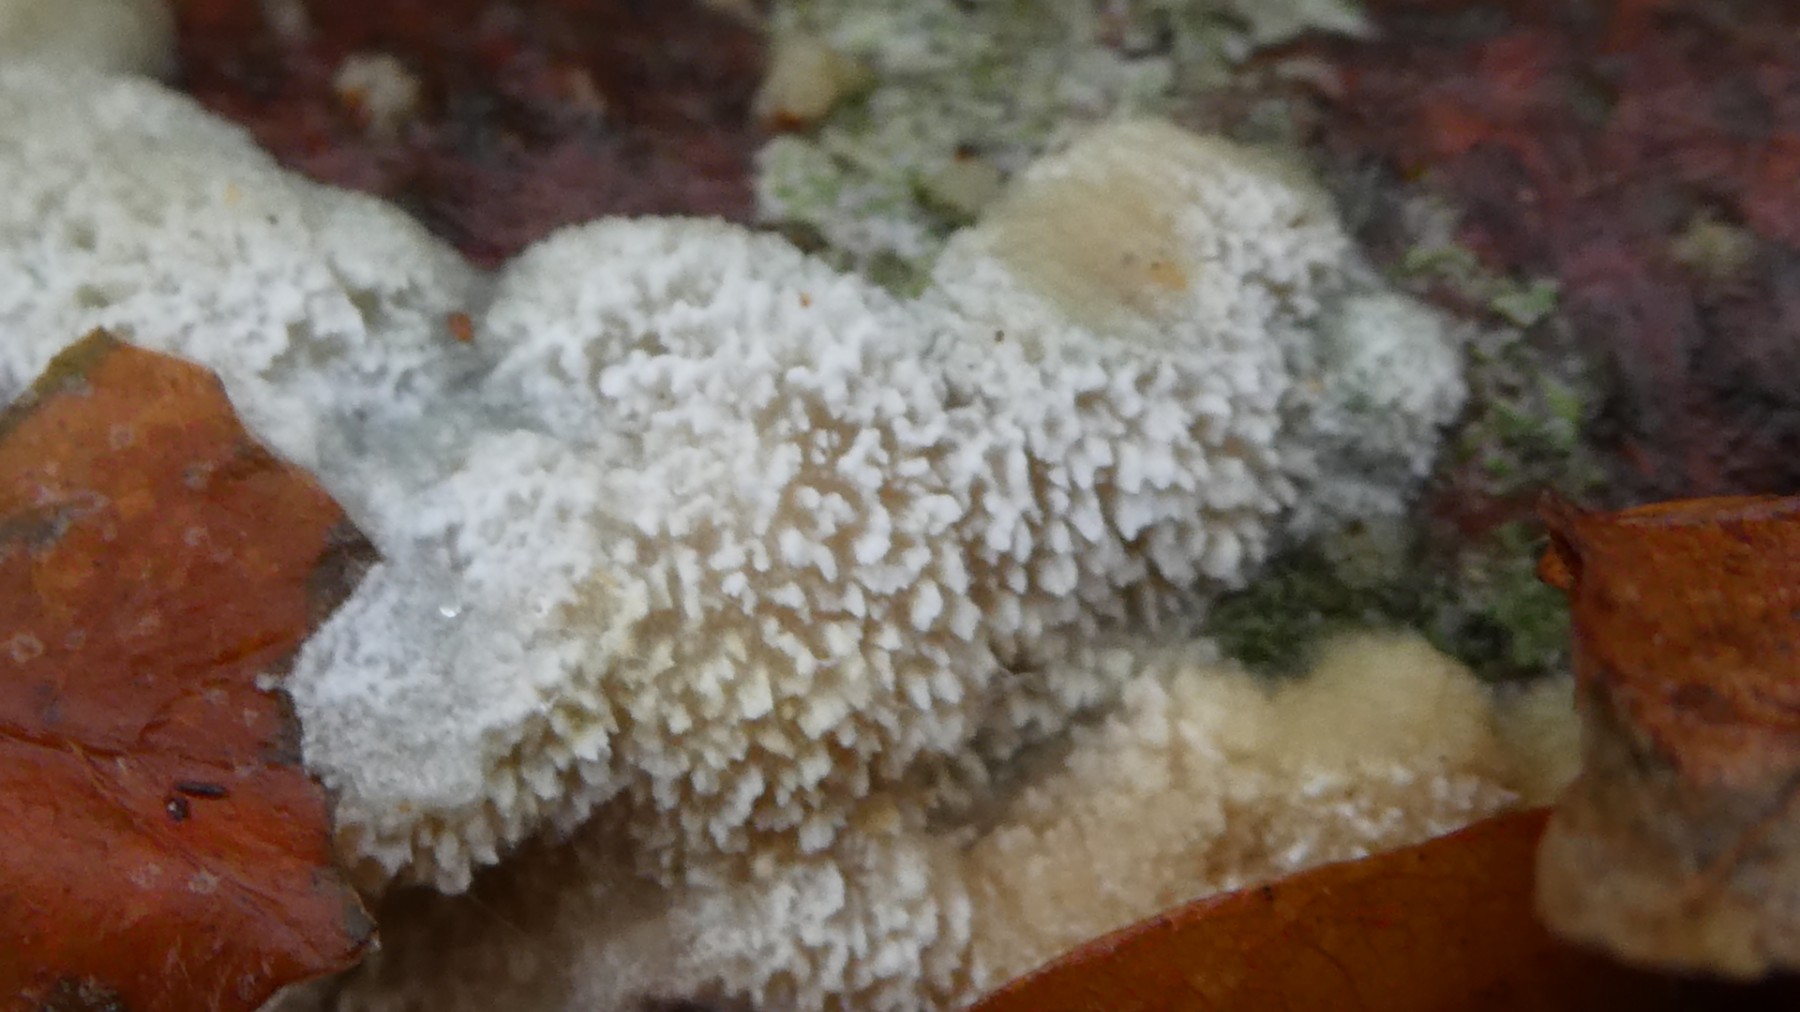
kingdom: Fungi
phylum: Basidiomycota
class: Agaricomycetes
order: Hymenochaetales
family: Schizoporaceae
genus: Schizopora
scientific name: Schizopora paradoxa
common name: hvid tandsvamp
